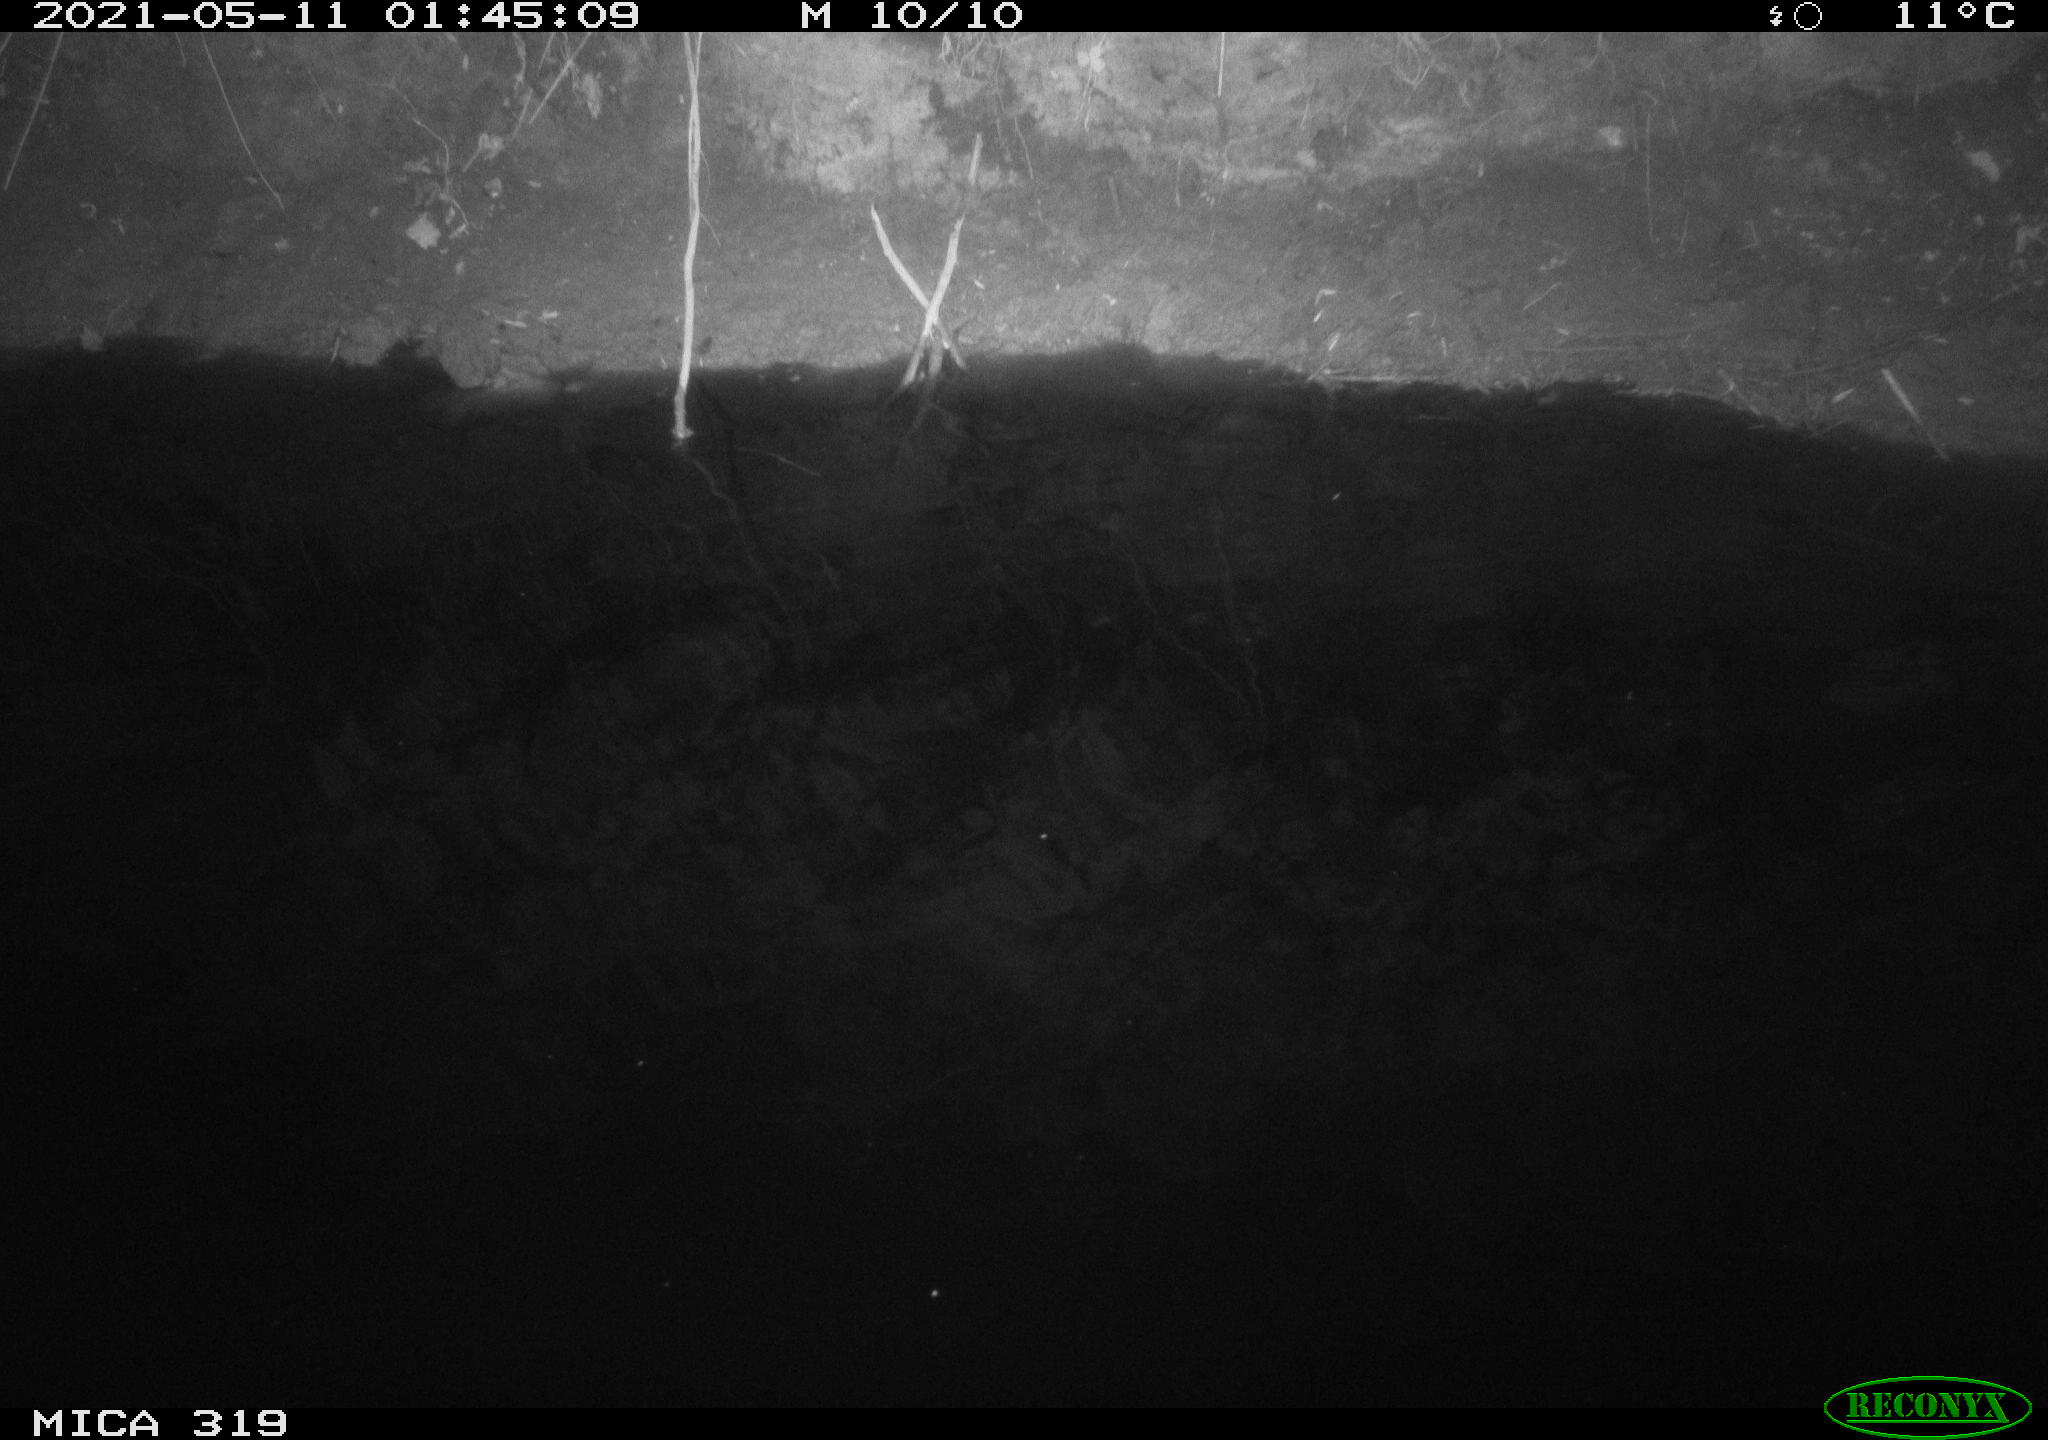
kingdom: Animalia
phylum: Chordata
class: Aves
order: Anseriformes
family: Anatidae
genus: Anas
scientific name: Anas platyrhynchos
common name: Mallard
